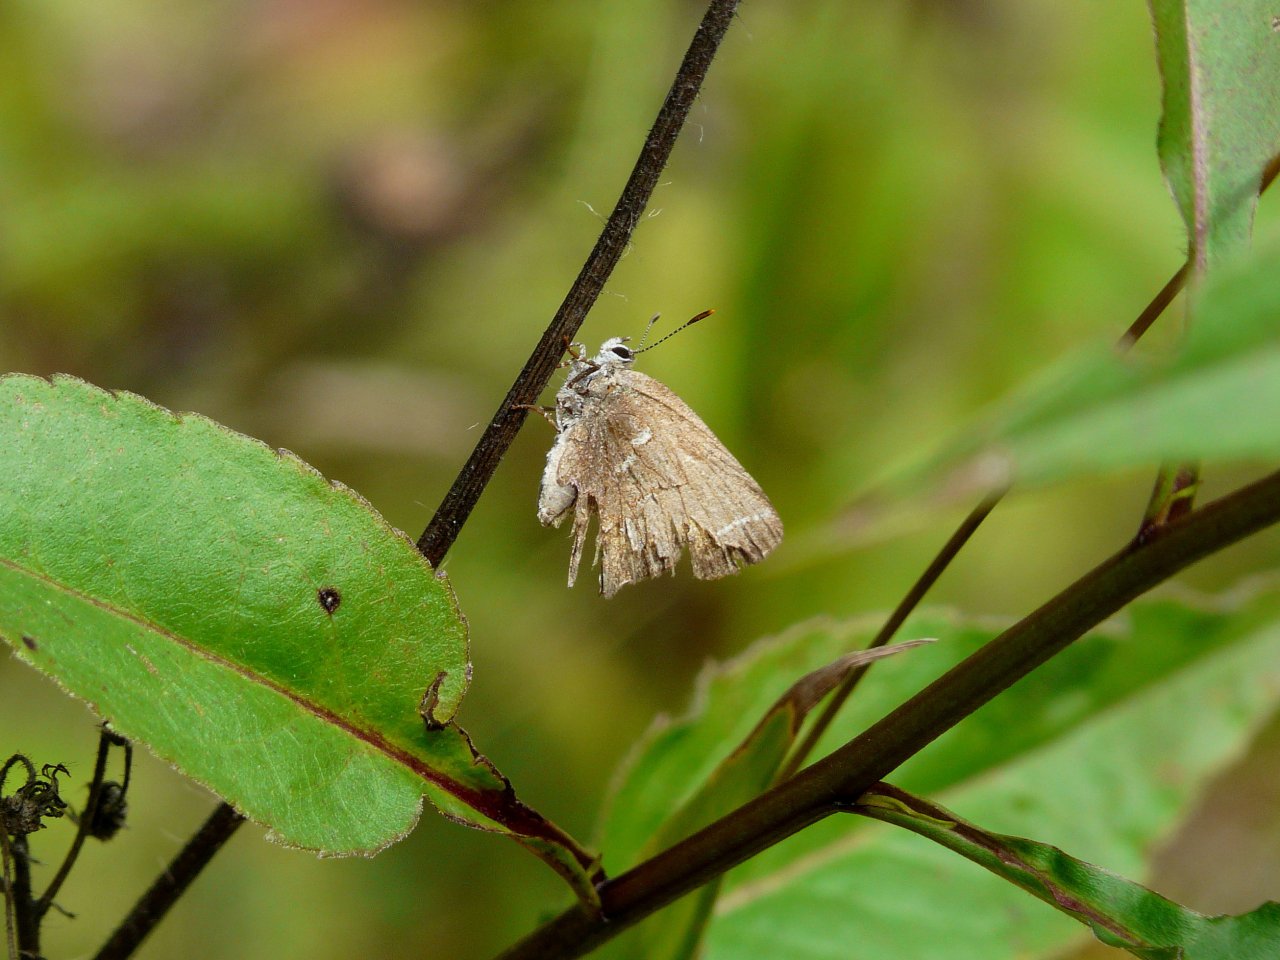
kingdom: Animalia
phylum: Arthropoda
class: Insecta
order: Lepidoptera
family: Lycaenidae
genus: Mitoura
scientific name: Mitoura gryneus
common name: Juniper Hairstreak
